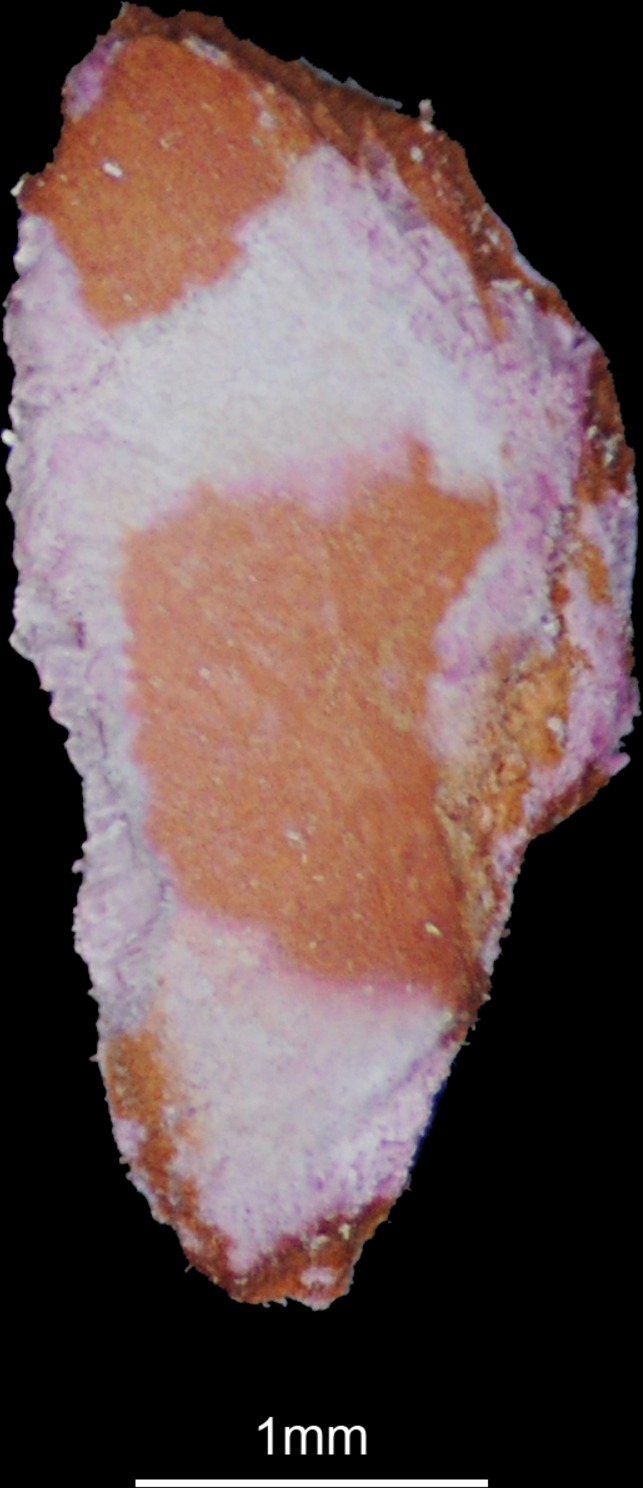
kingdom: Animalia
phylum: Chordata
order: Perciformes
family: Pomacanthidae
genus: Pomacanthus
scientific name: Pomacanthus imperator
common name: Emperor angelfish
